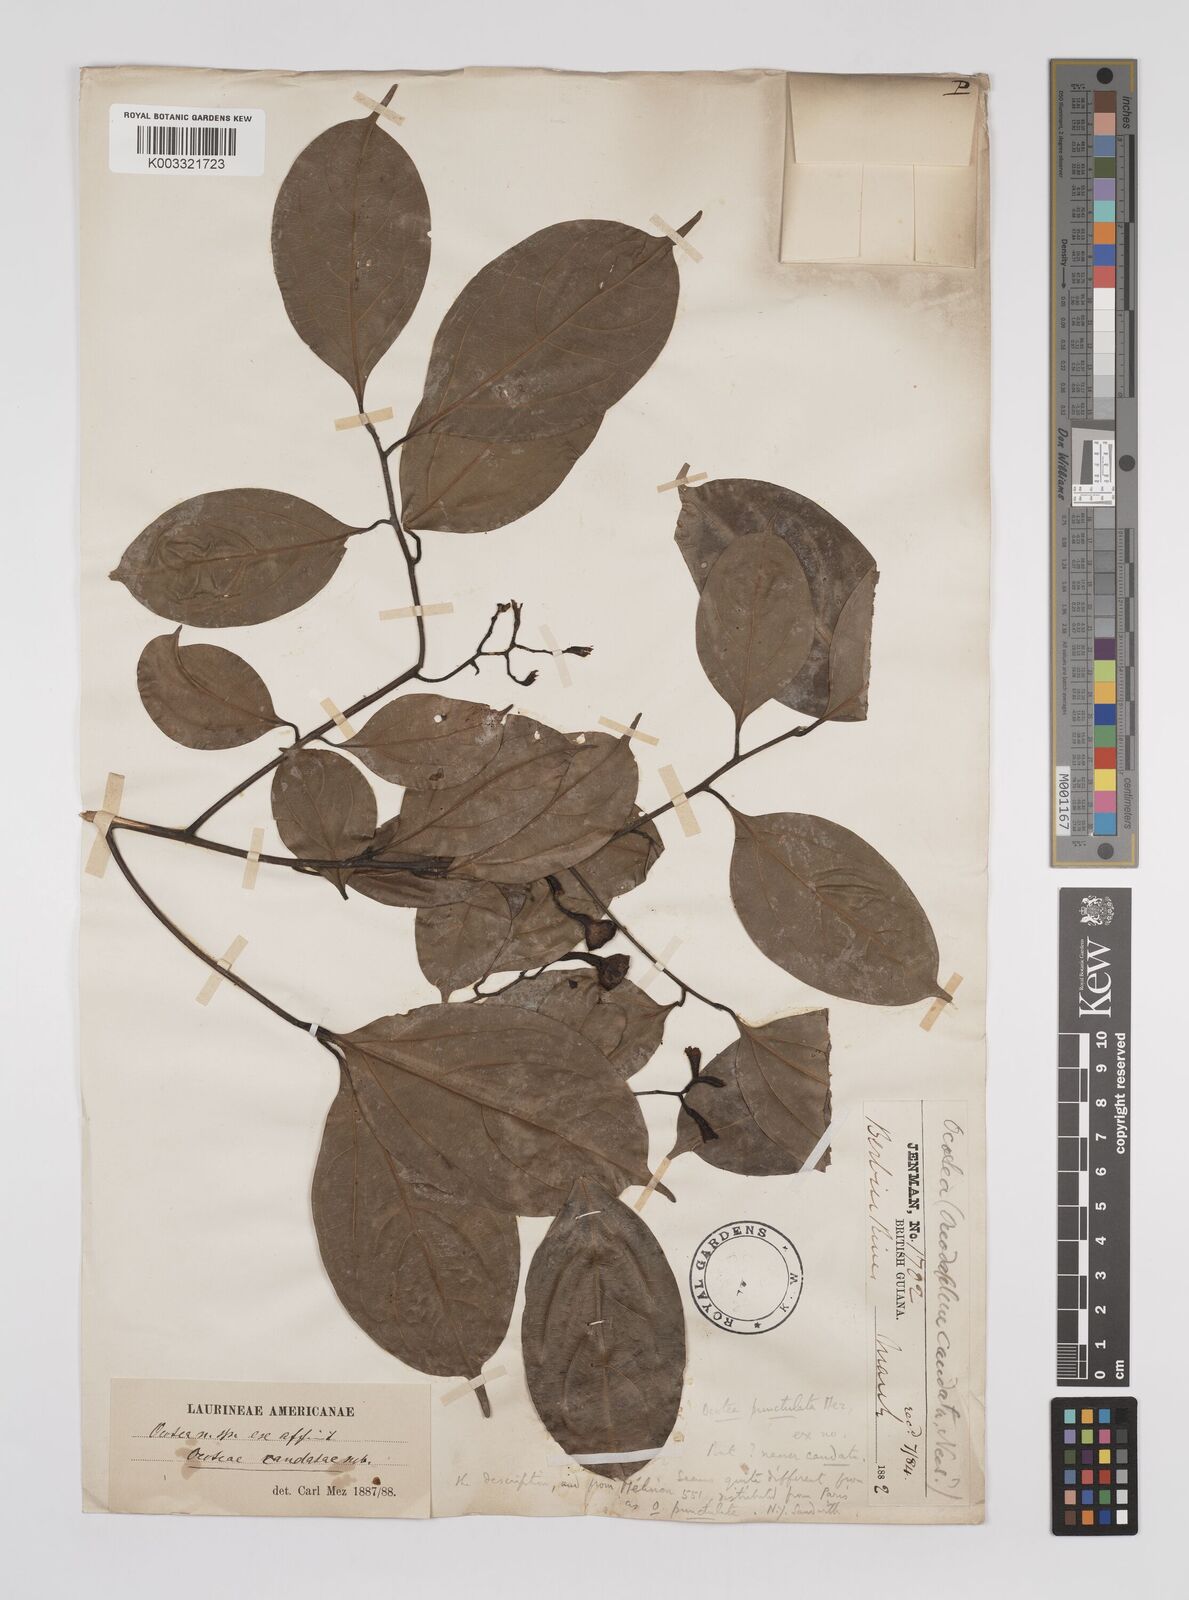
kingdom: Plantae
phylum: Tracheophyta
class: Magnoliopsida
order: Laurales
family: Lauraceae
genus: Ocotea
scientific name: Ocotea leptobotra
